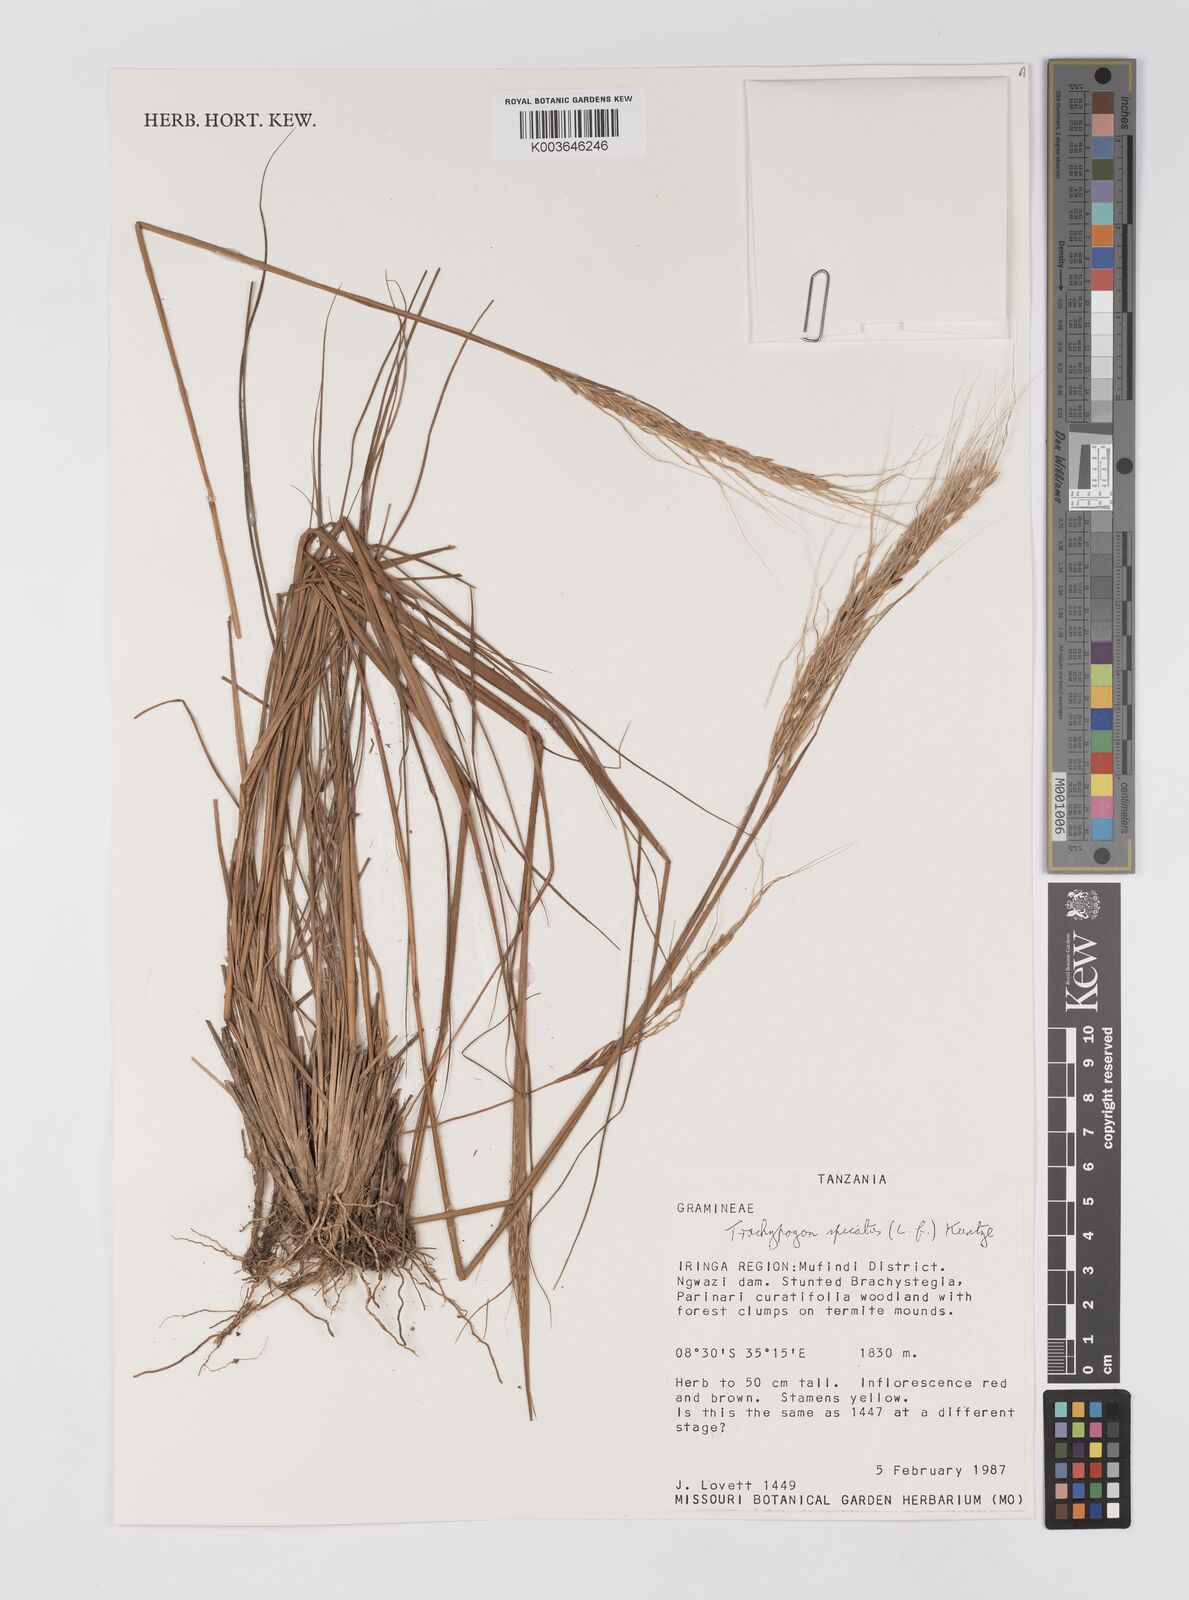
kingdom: Plantae
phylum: Tracheophyta
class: Liliopsida
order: Poales
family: Poaceae
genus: Trachypogon
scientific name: Trachypogon spicatus
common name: Crinkle-awn
